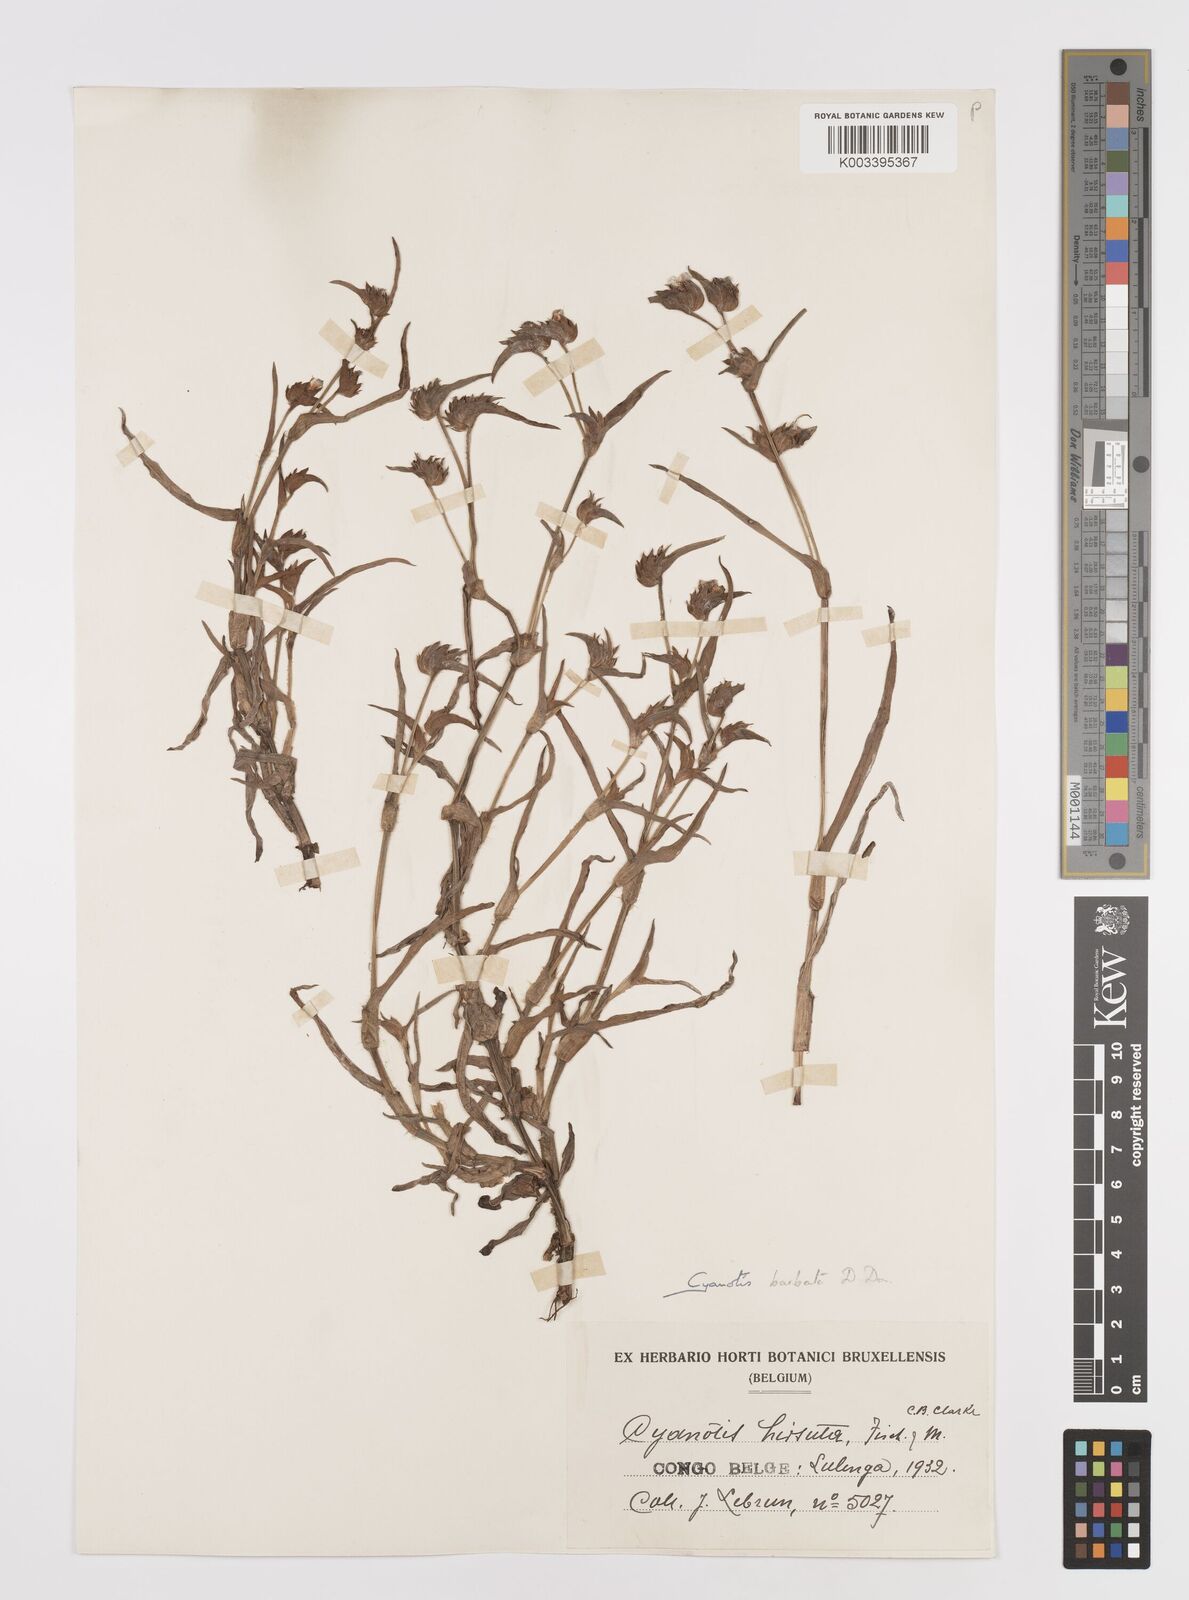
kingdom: Plantae
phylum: Tracheophyta
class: Liliopsida
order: Commelinales
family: Commelinaceae
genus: Cyanotis
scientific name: Cyanotis vaga
